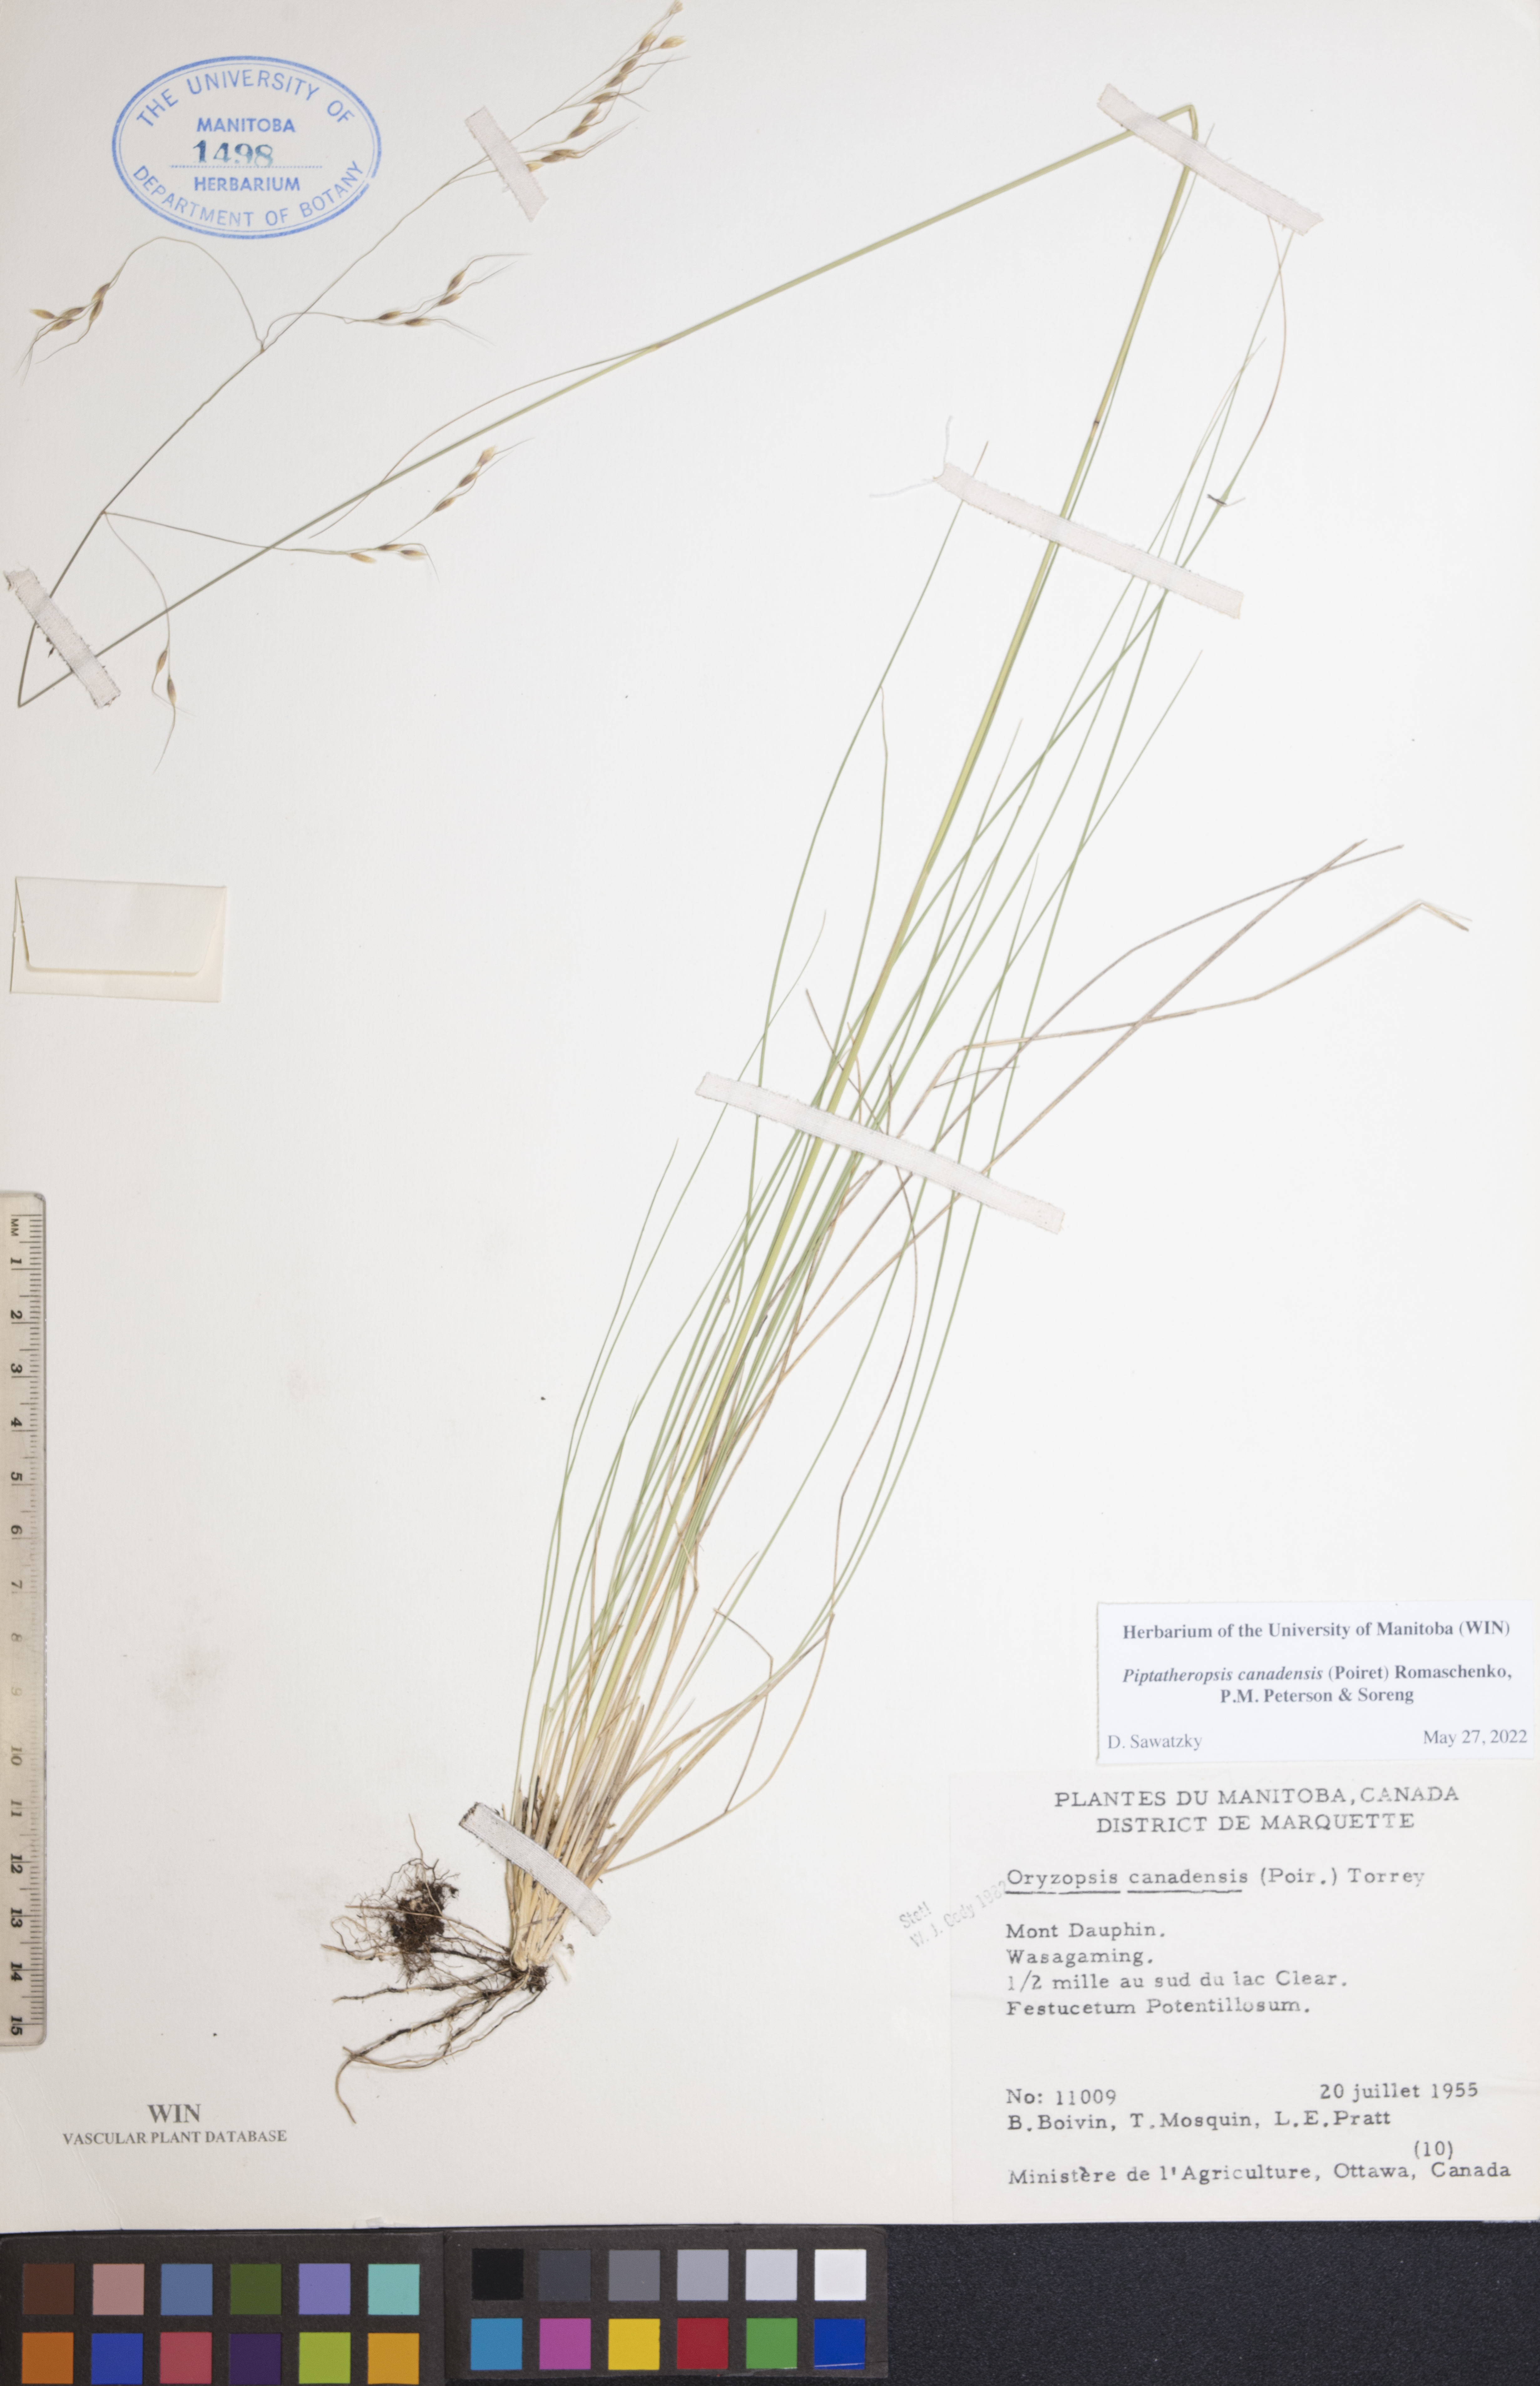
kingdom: Plantae
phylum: Tracheophyta
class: Liliopsida
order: Poales
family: Poaceae
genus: Piptatheropsis
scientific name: Piptatheropsis canadensis
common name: Canada mountain ricegrass
